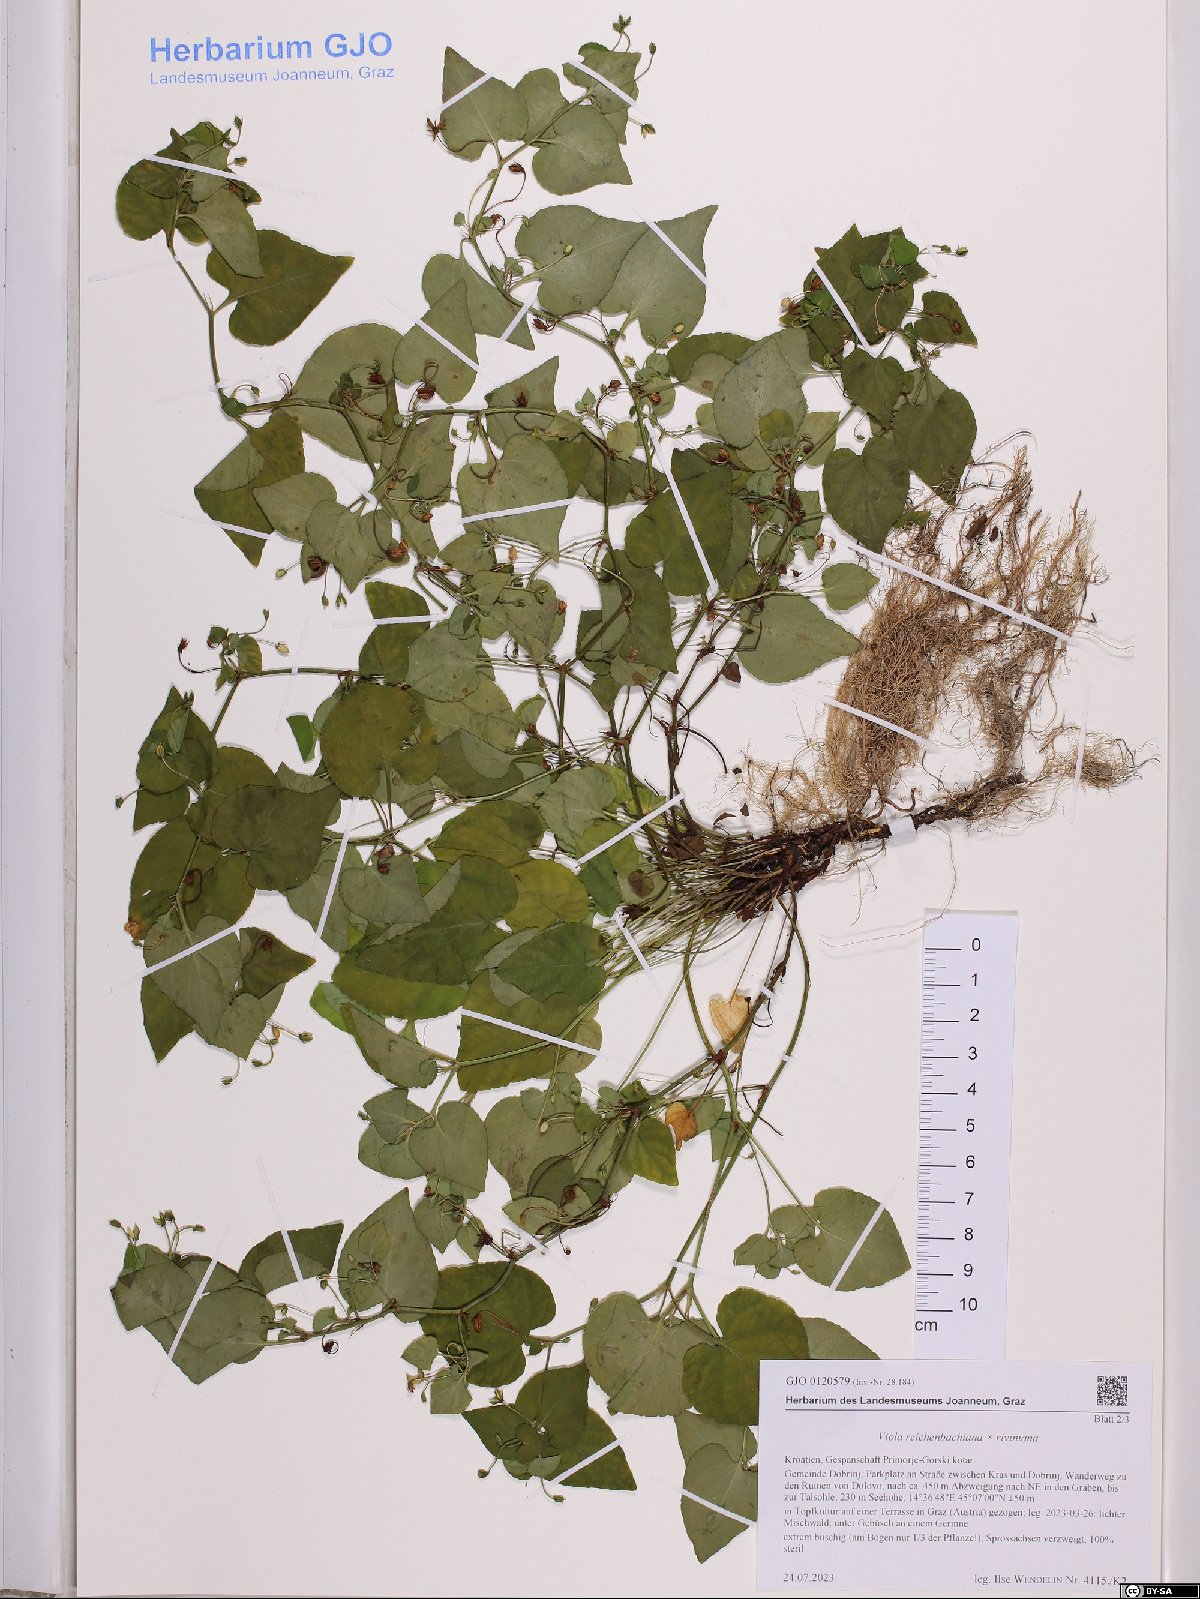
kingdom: Plantae
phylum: Tracheophyta
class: Magnoliopsida
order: Malpighiales
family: Violaceae
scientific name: Violaceae
